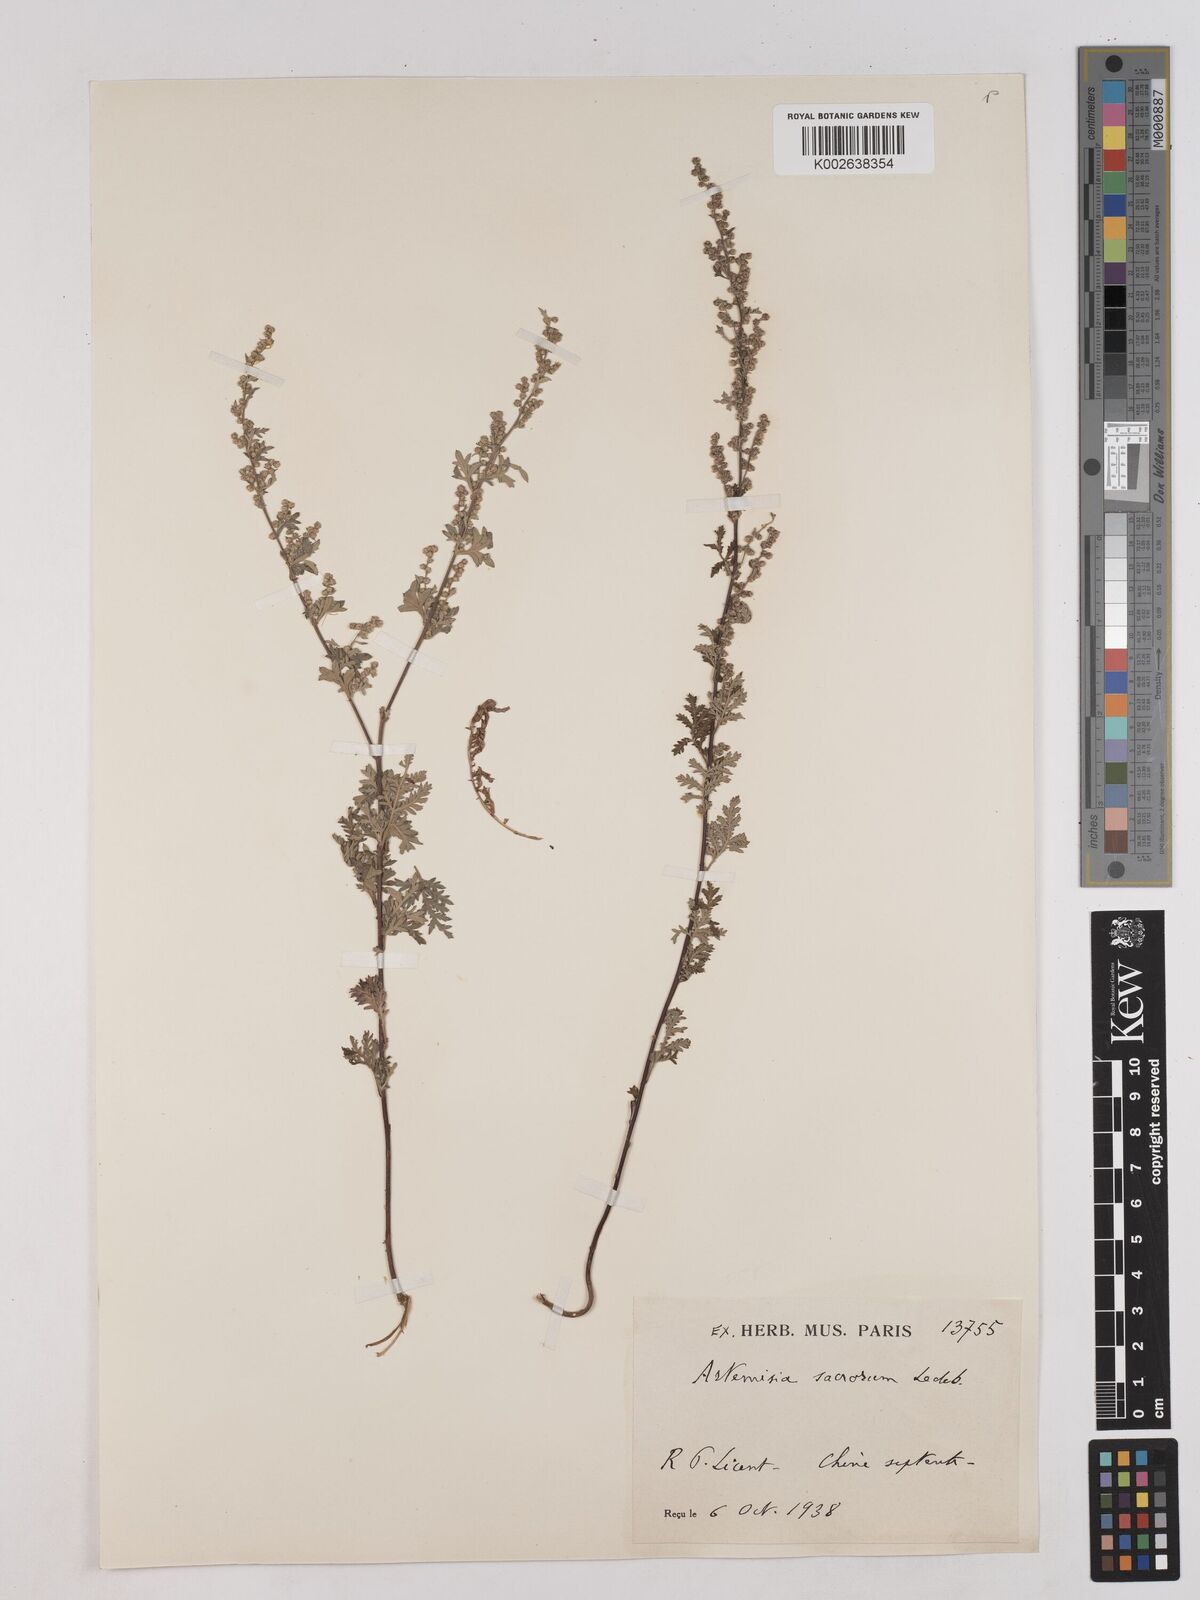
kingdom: Plantae
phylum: Tracheophyta
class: Magnoliopsida
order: Asterales
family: Asteraceae
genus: Artemisia
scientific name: Artemisia gmelinii
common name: Gmelin's wormwood
